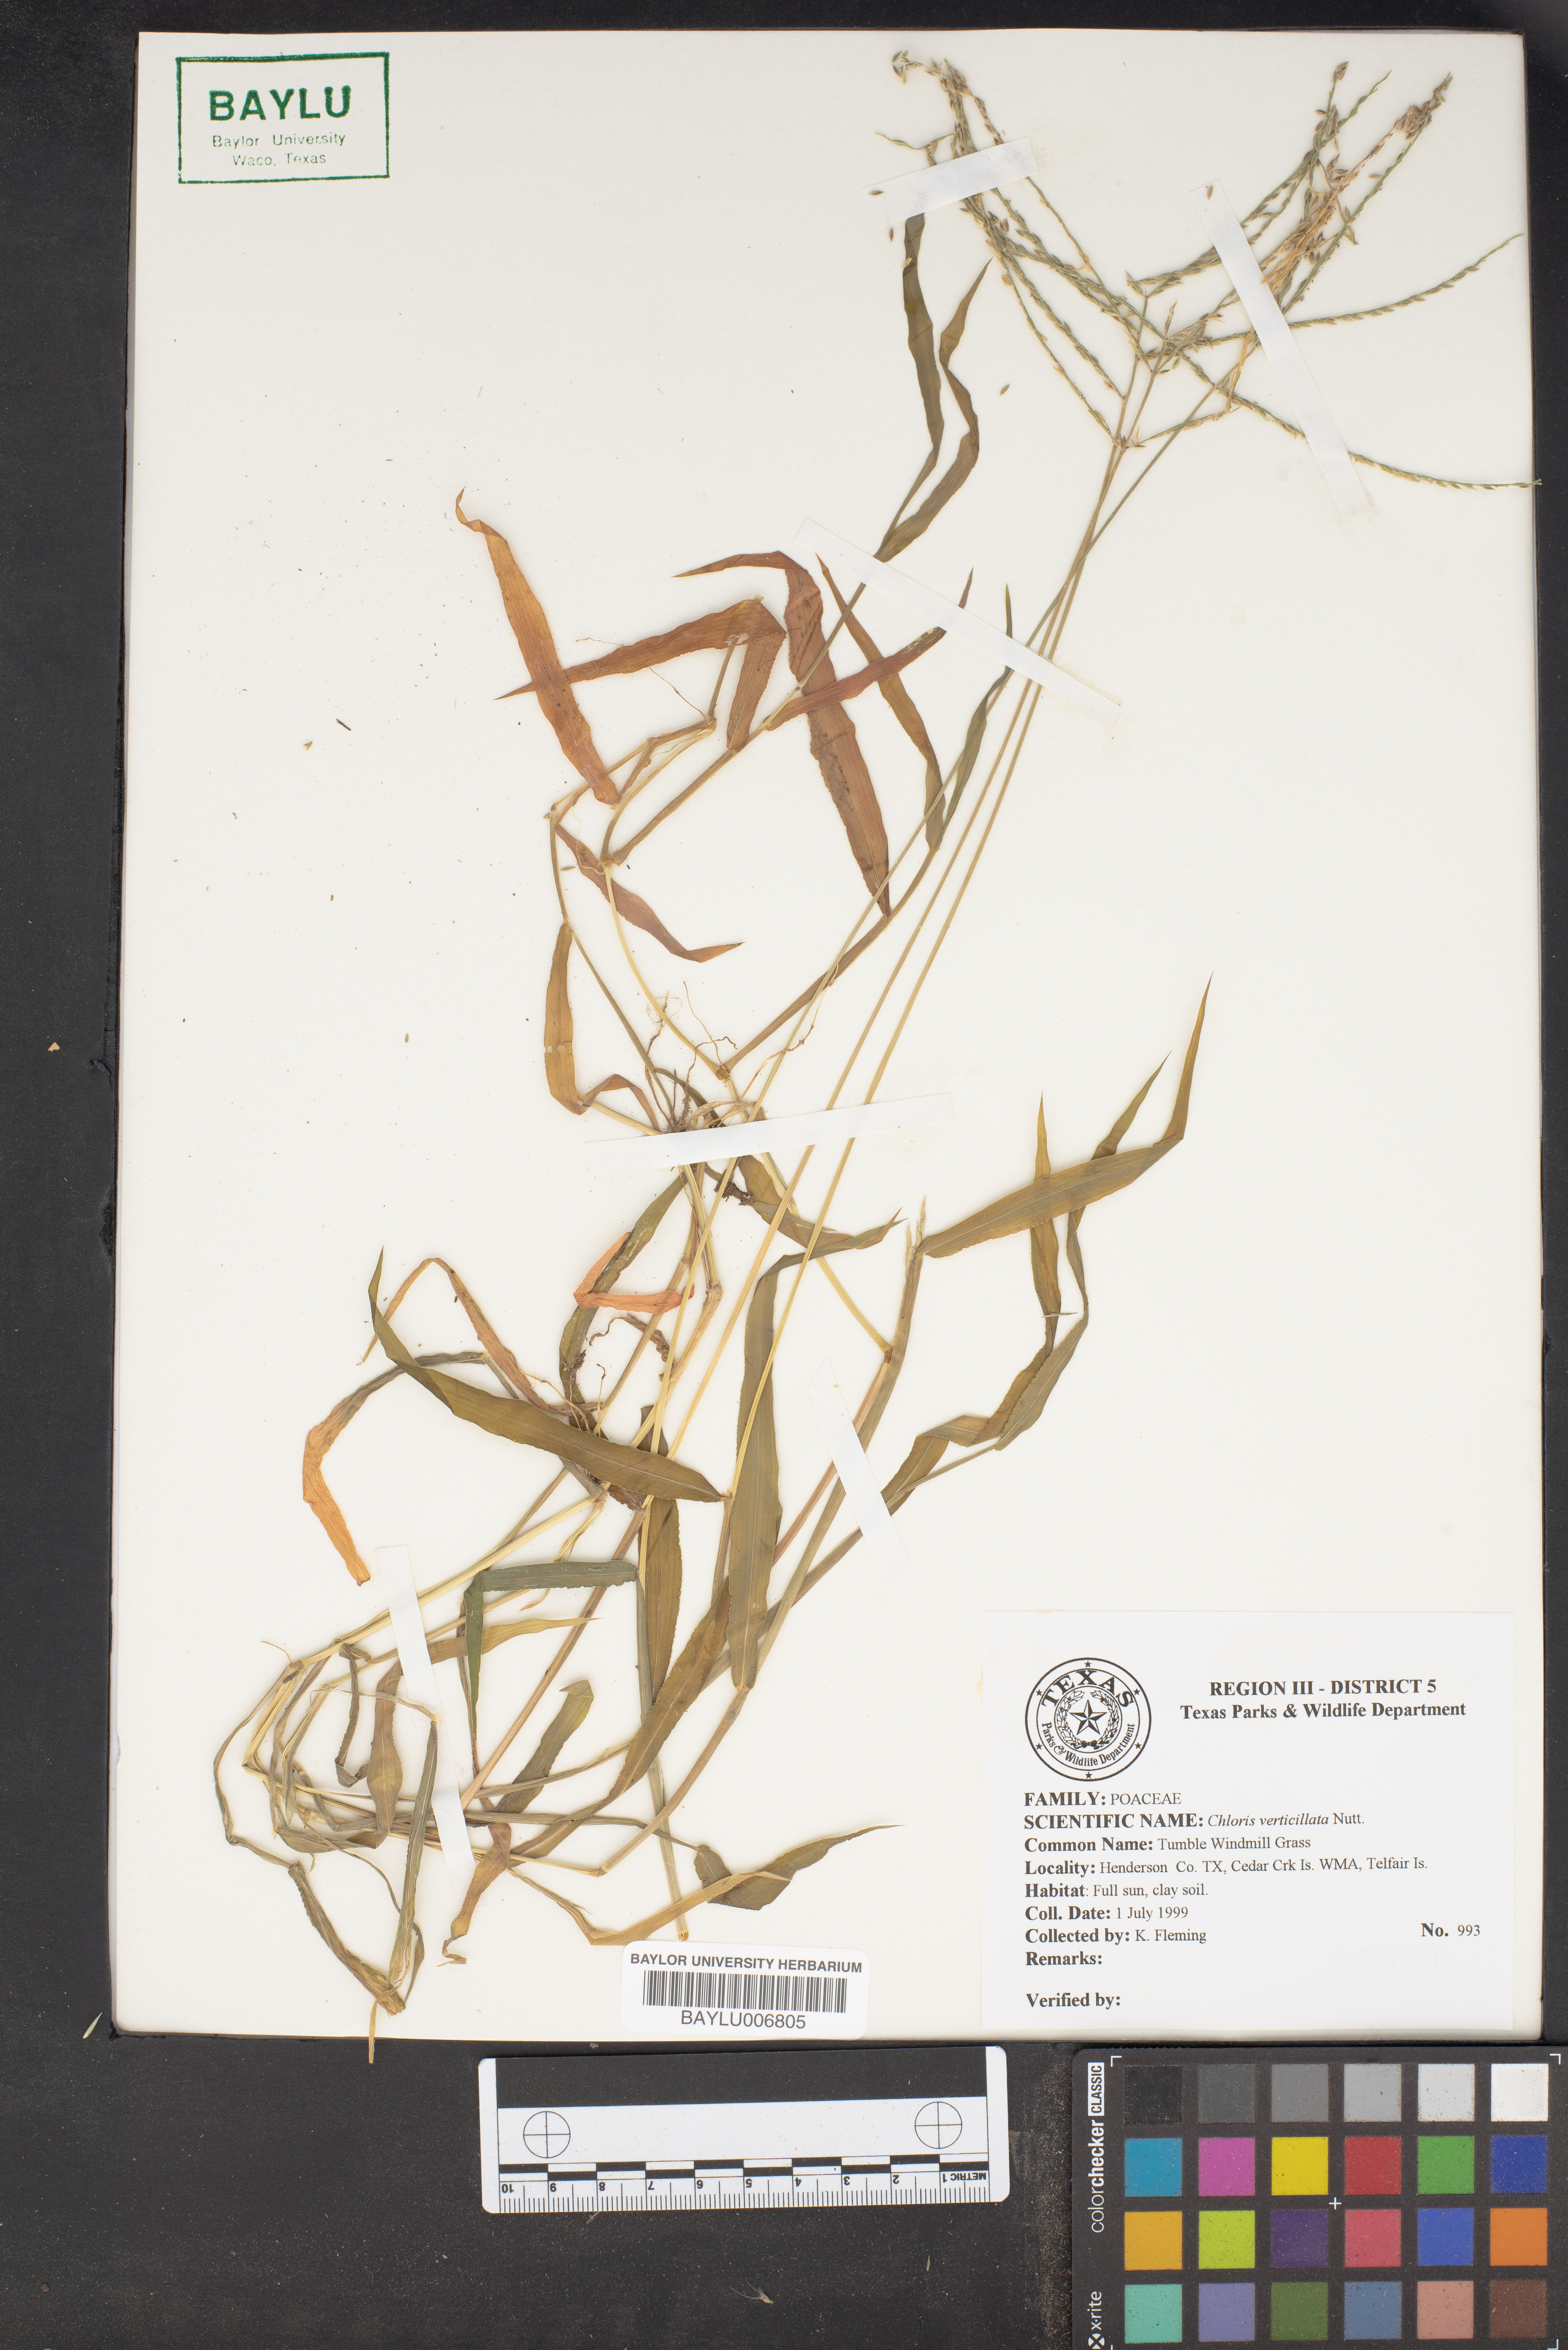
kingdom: Plantae
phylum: Tracheophyta
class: Liliopsida
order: Poales
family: Poaceae
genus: Chloris
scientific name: Chloris verticillata
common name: Tumble windmill grass
